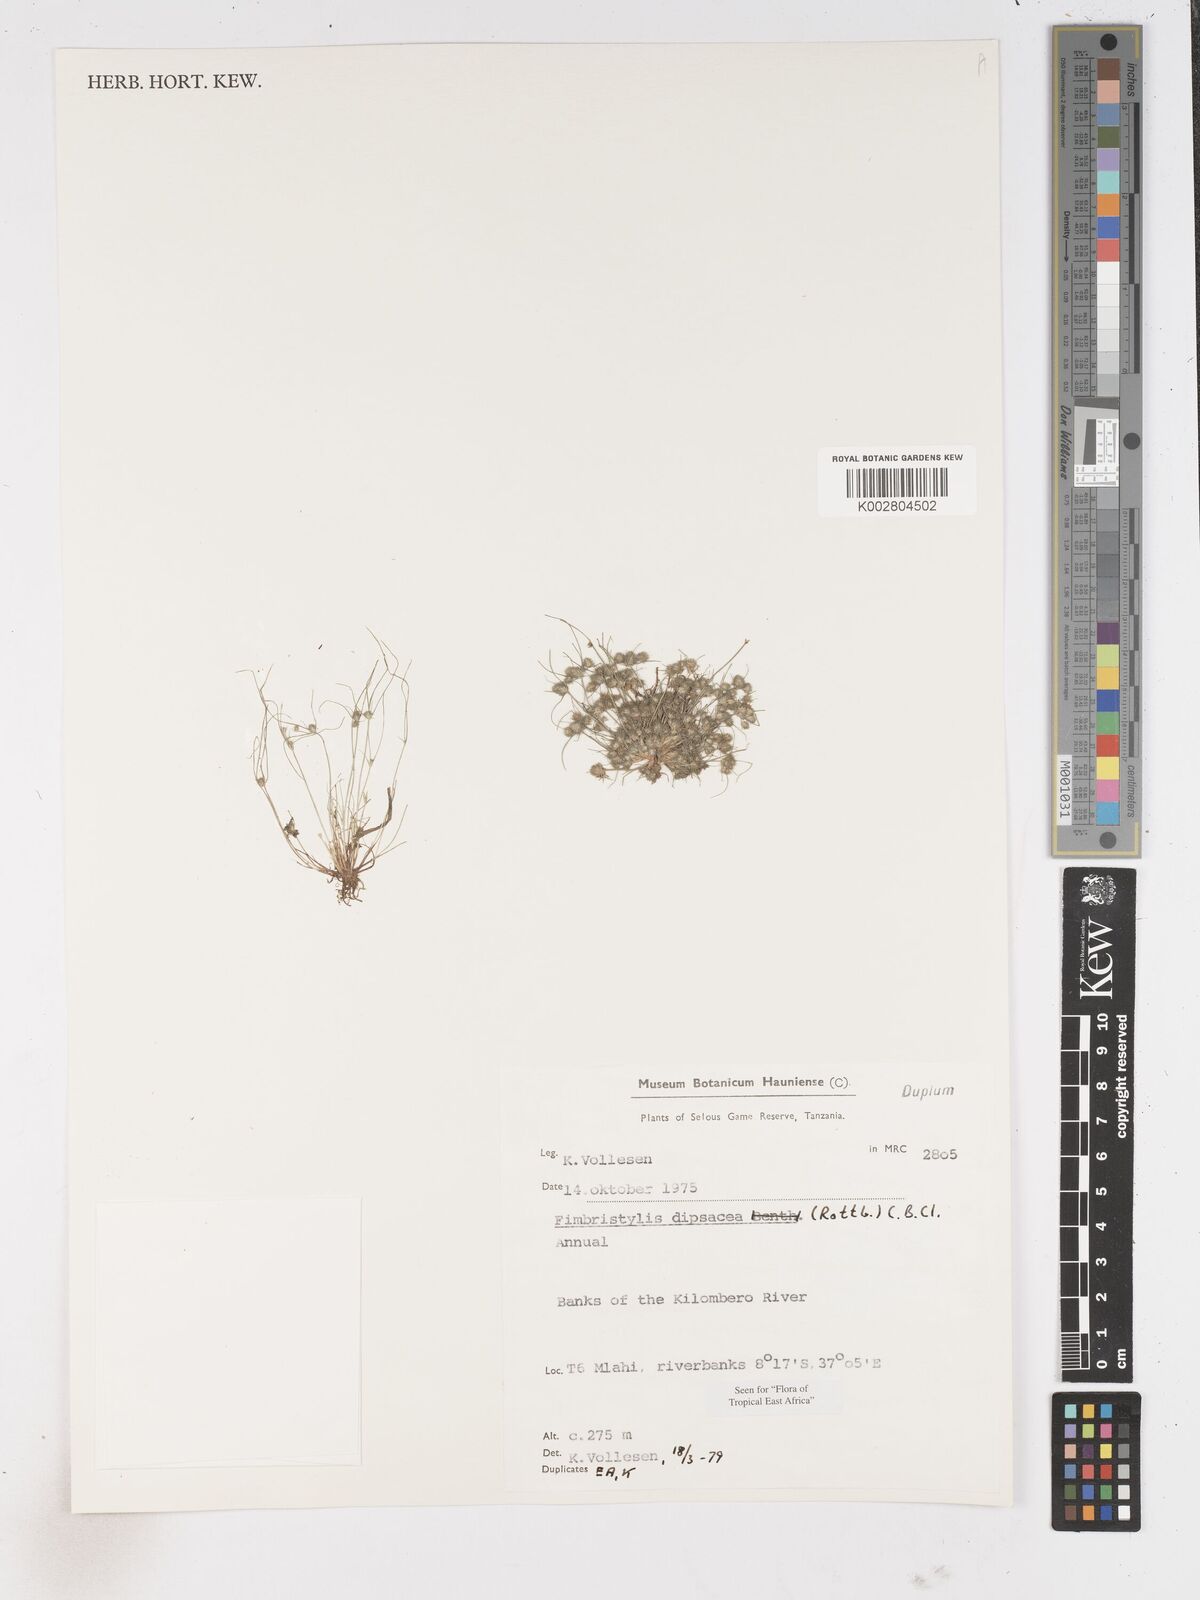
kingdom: Plantae
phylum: Tracheophyta
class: Liliopsida
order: Poales
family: Cyperaceae
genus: Fimbristylis
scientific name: Fimbristylis dipsacea
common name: Harper's fimbristylis
